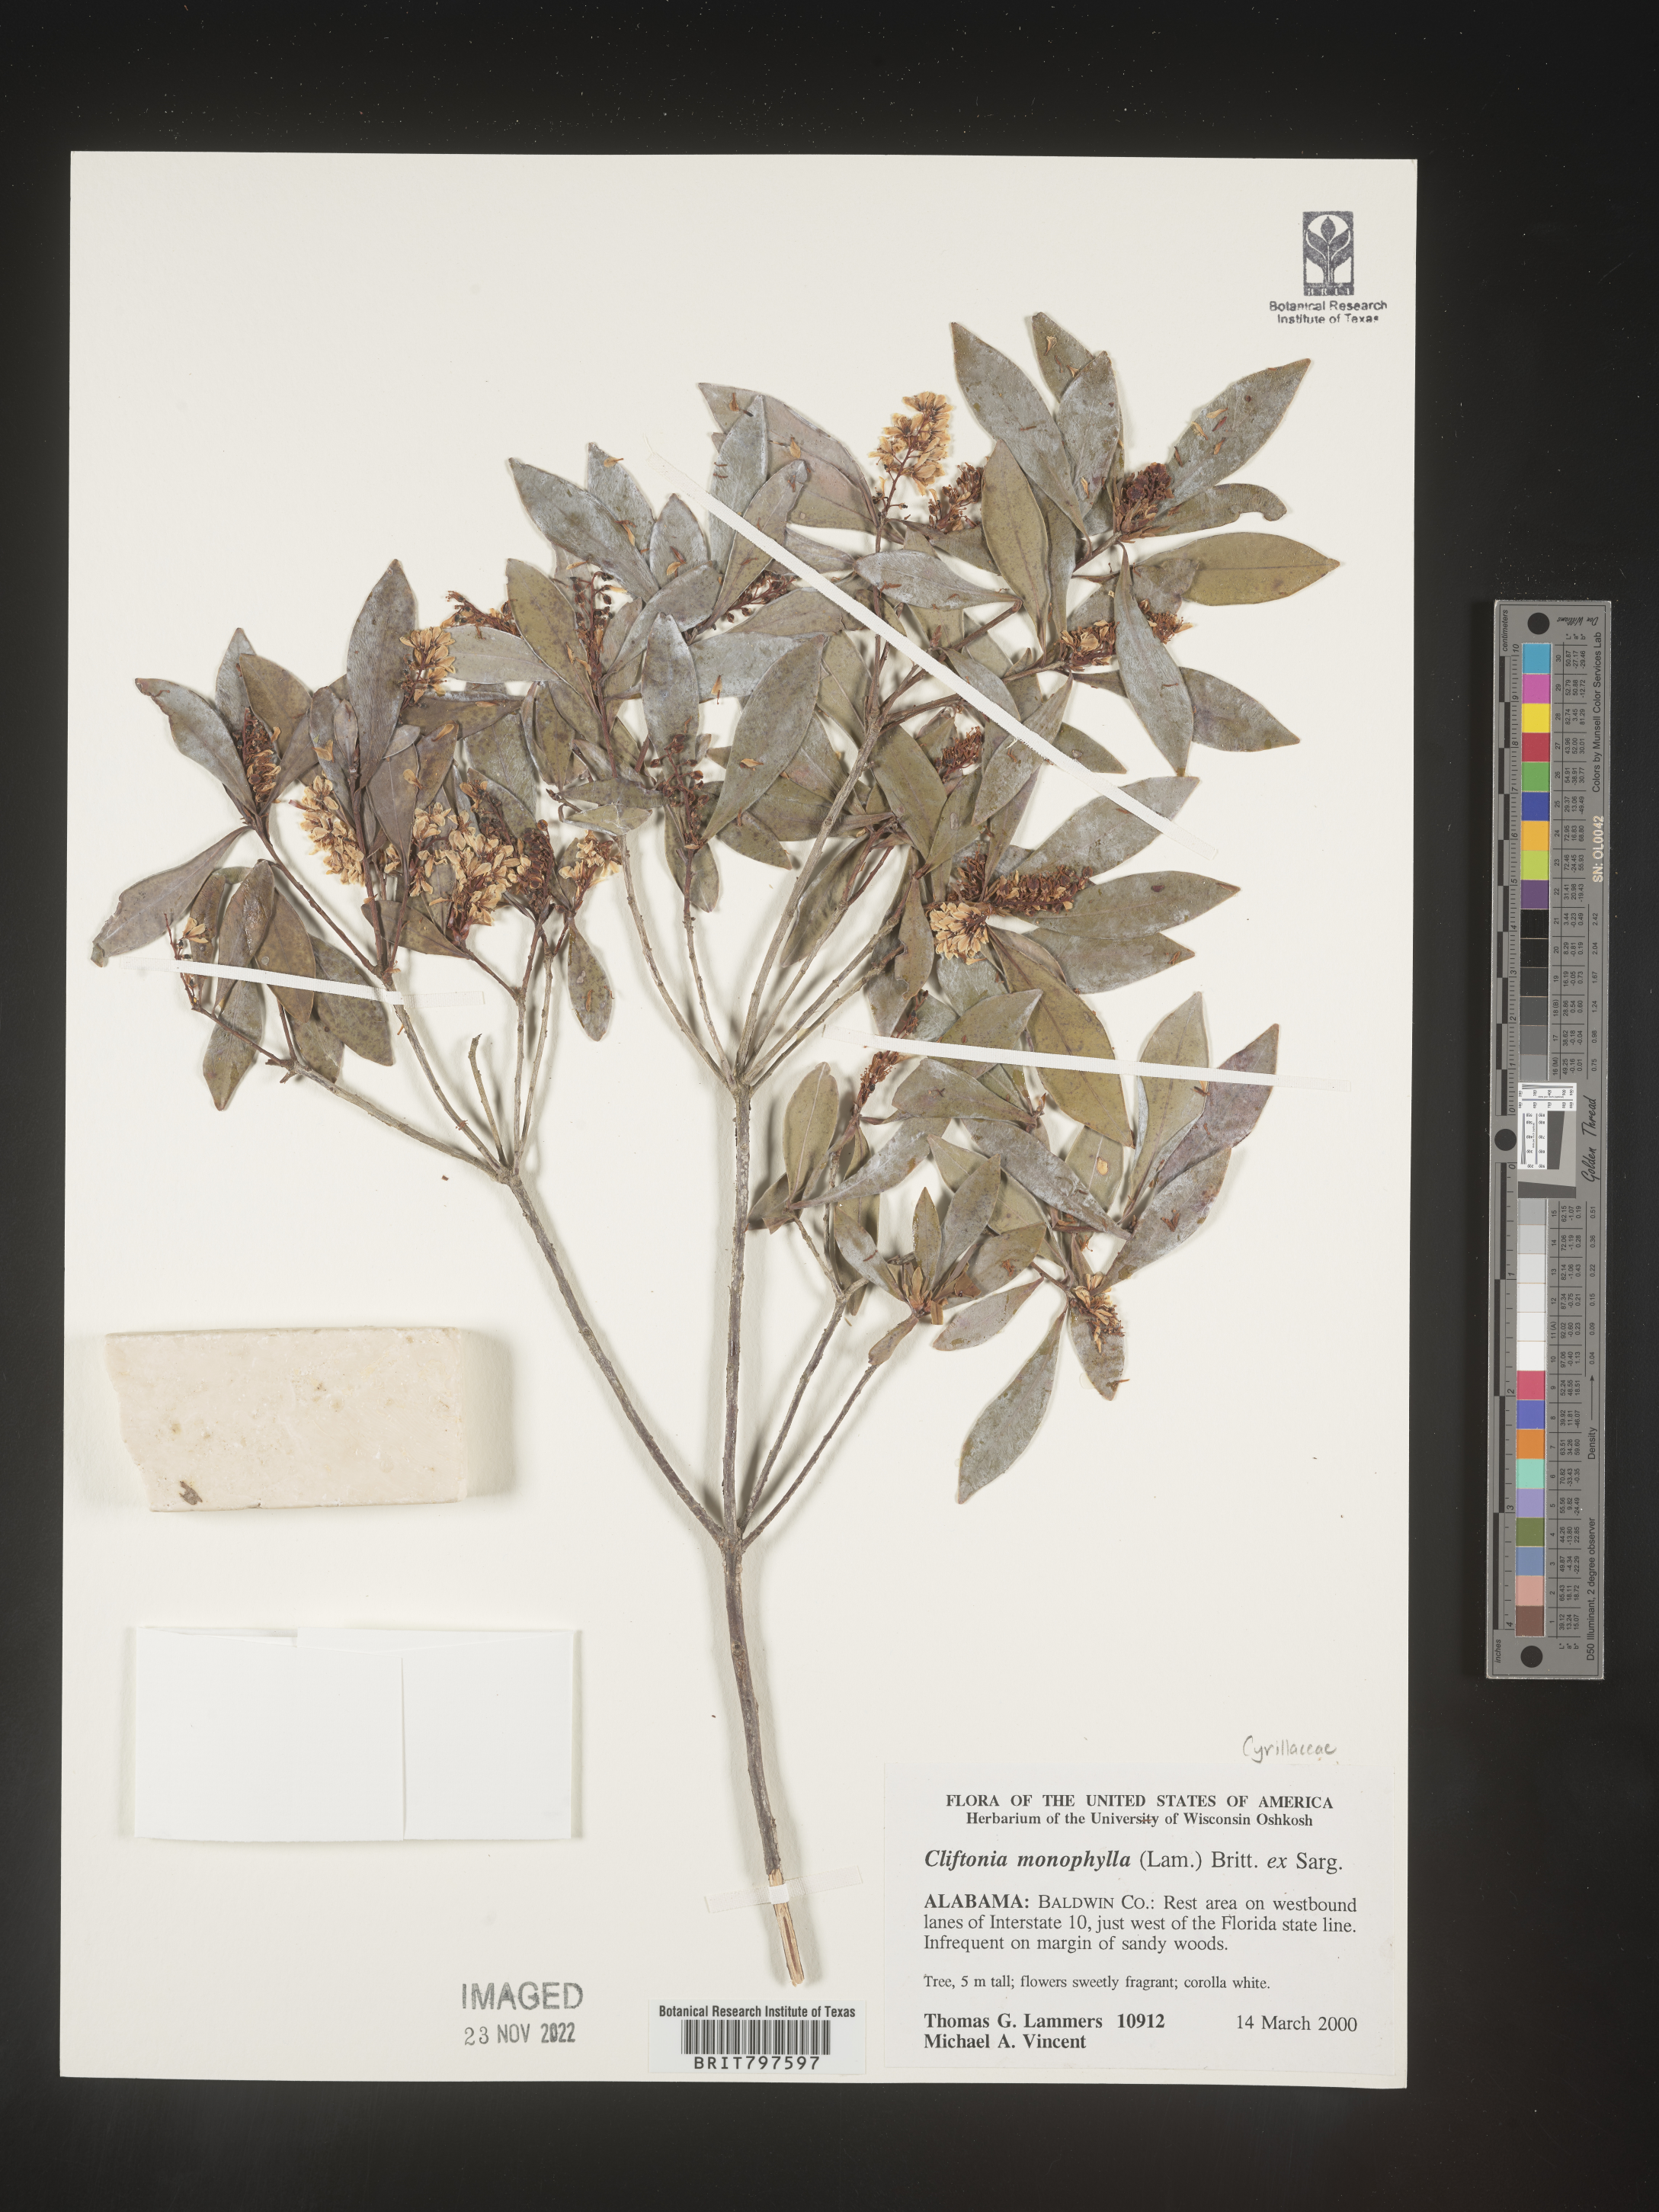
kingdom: Plantae
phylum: Tracheophyta
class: Magnoliopsida
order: Ericales
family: Cyrillaceae
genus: Cliftonia
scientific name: Cliftonia monophylla
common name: Titi
